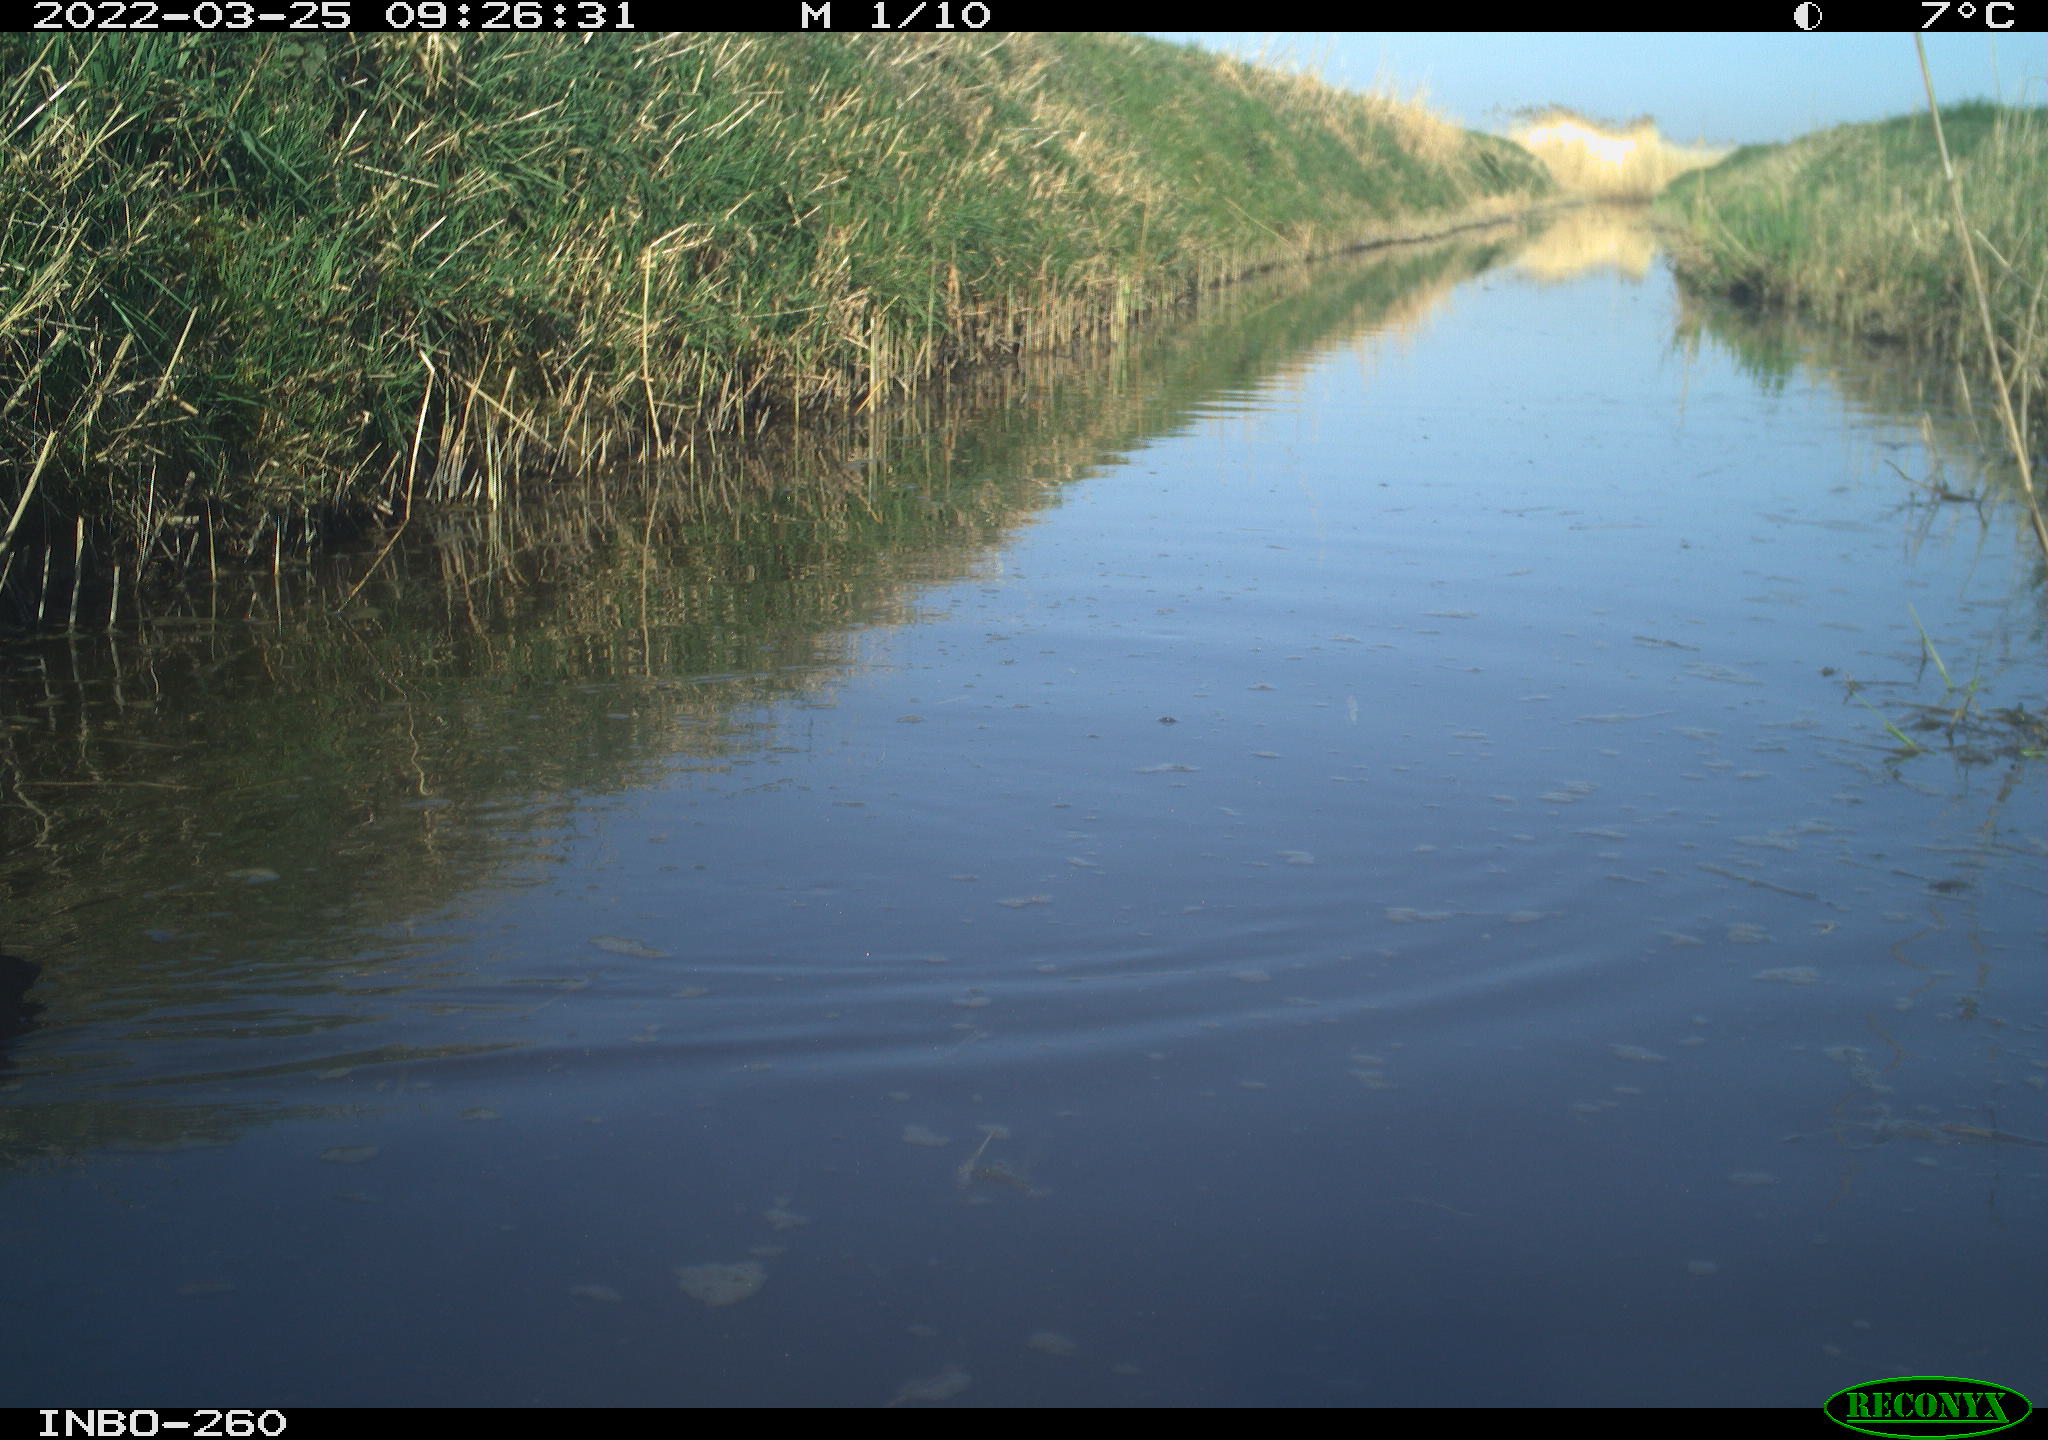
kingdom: Animalia
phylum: Chordata
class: Aves
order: Gruiformes
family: Rallidae
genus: Fulica
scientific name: Fulica atra
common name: Eurasian coot
